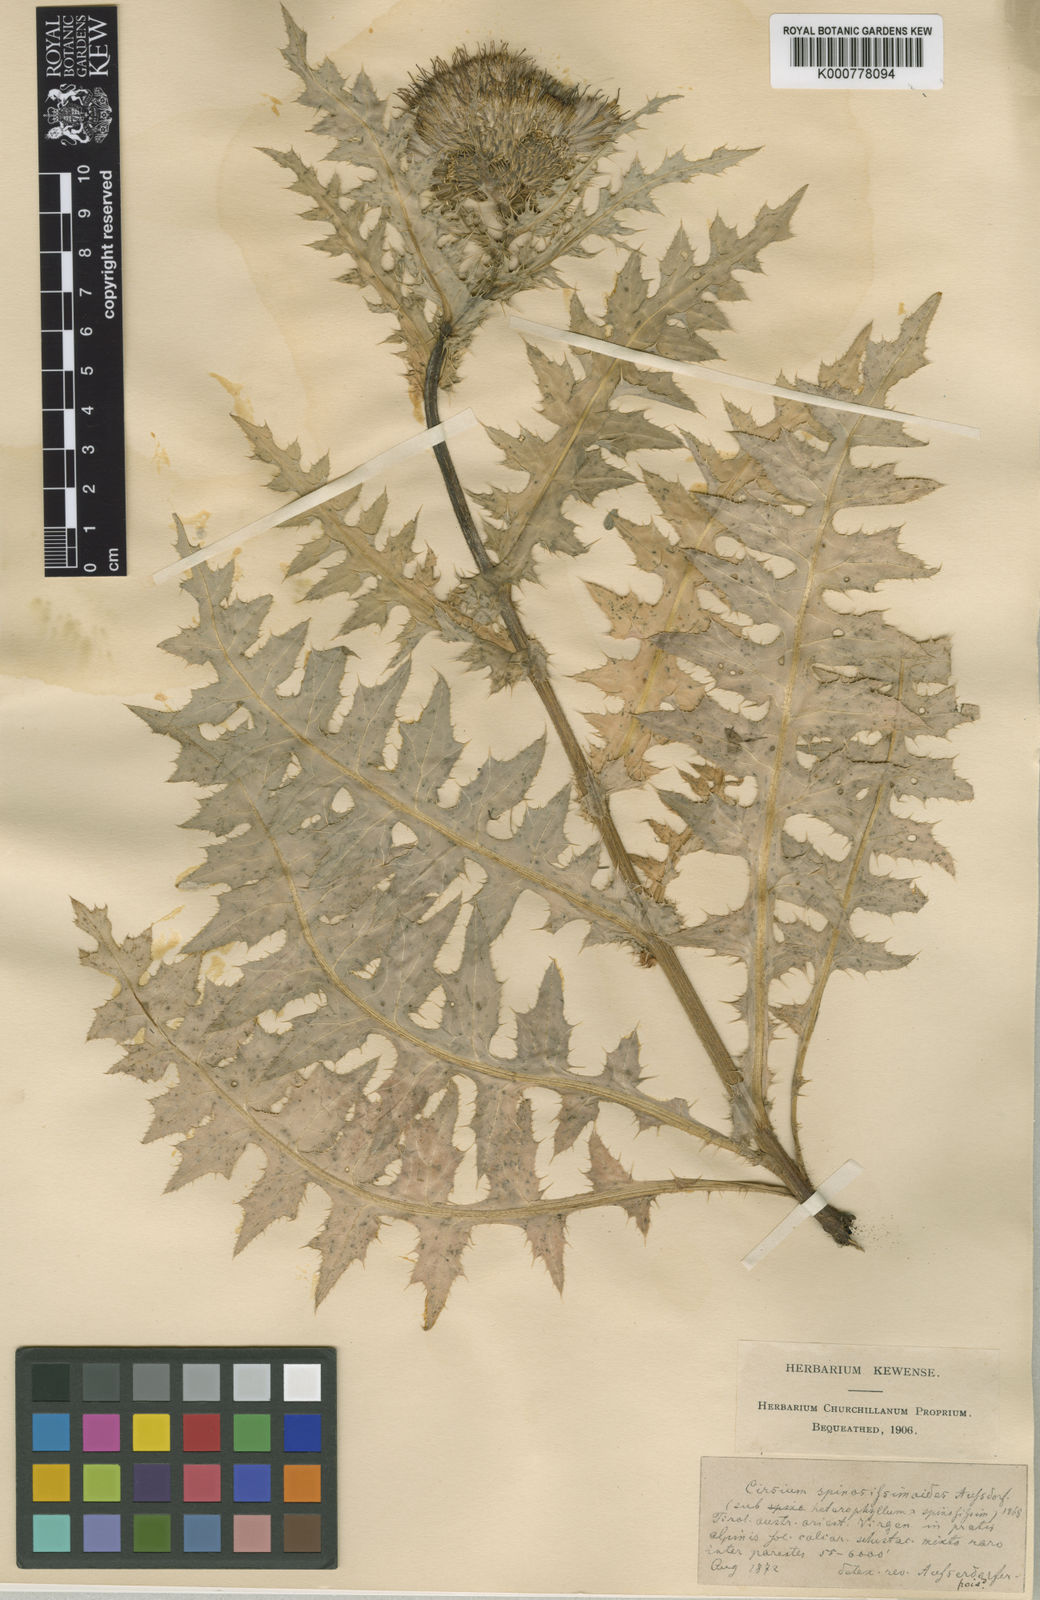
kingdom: Plantae
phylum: Tracheophyta
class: Magnoliopsida
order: Asterales
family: Asteraceae
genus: Cirsium
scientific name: Cirsium spinosissimum
